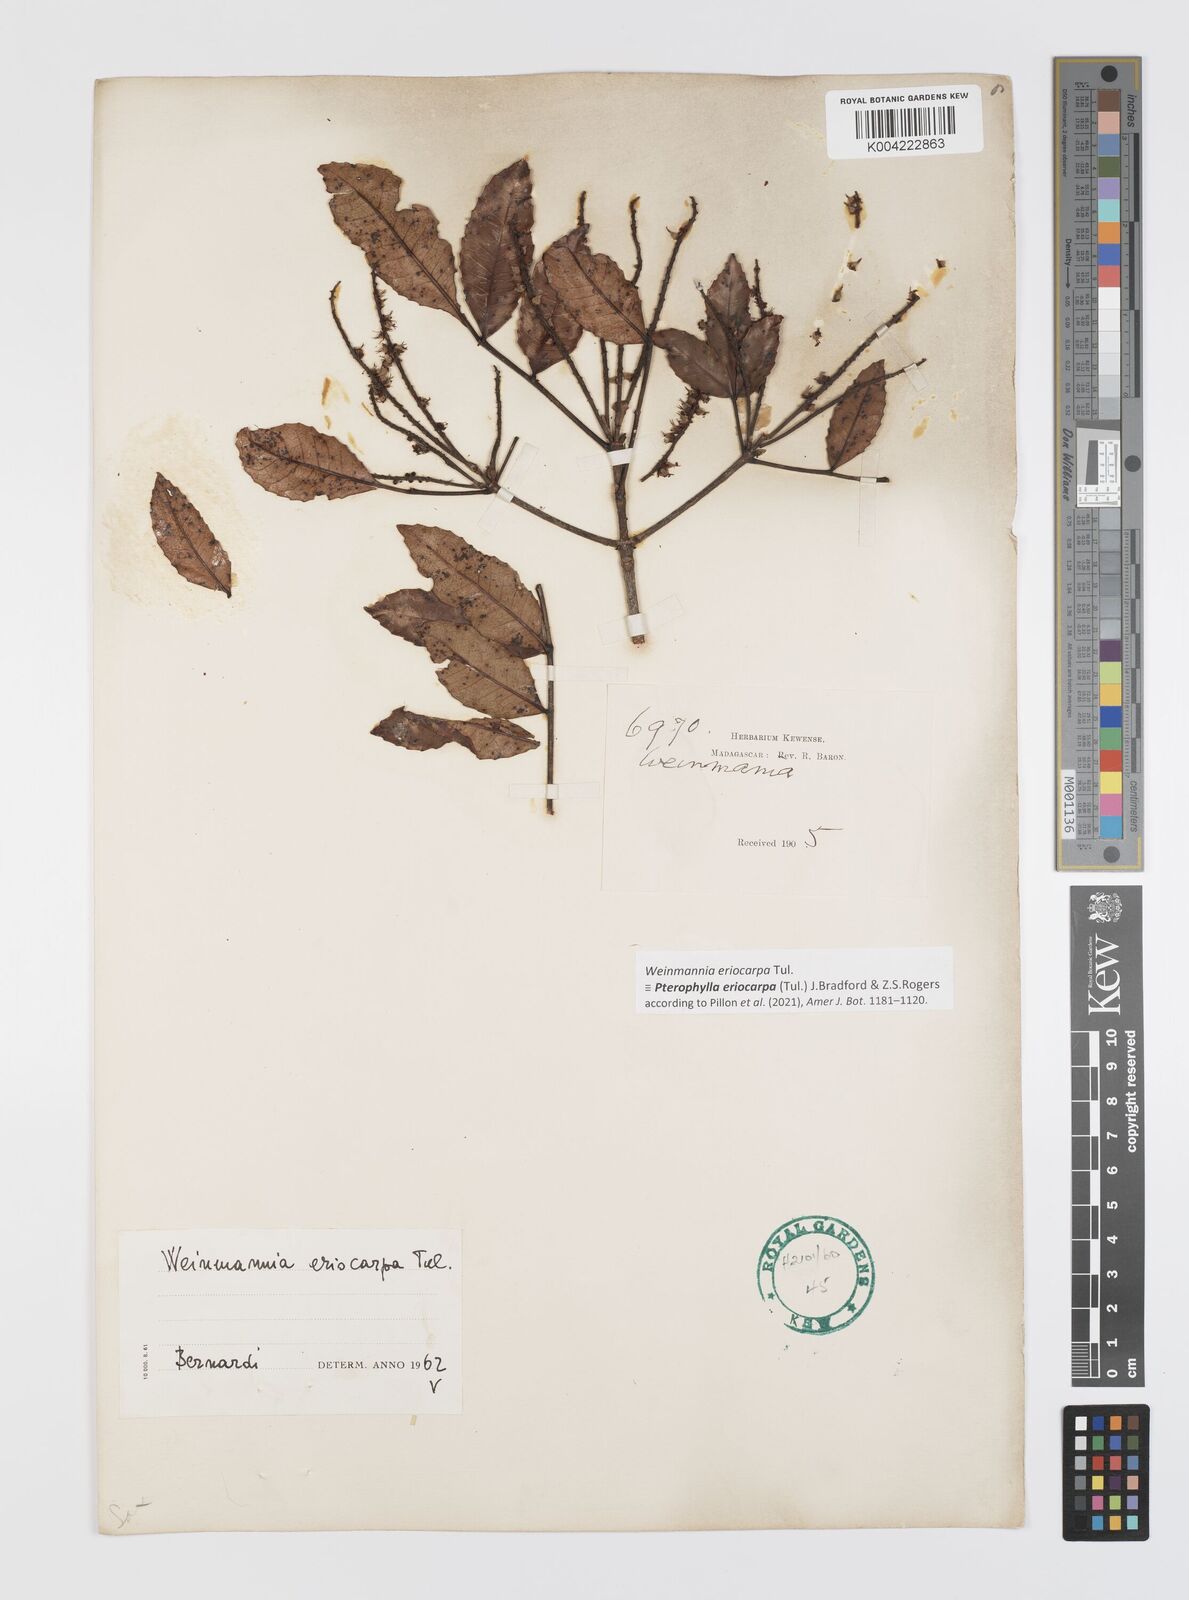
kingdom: Plantae
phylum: Tracheophyta
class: Magnoliopsida
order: Oxalidales
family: Cunoniaceae
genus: Pterophylla
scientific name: Pterophylla eriocarpa
